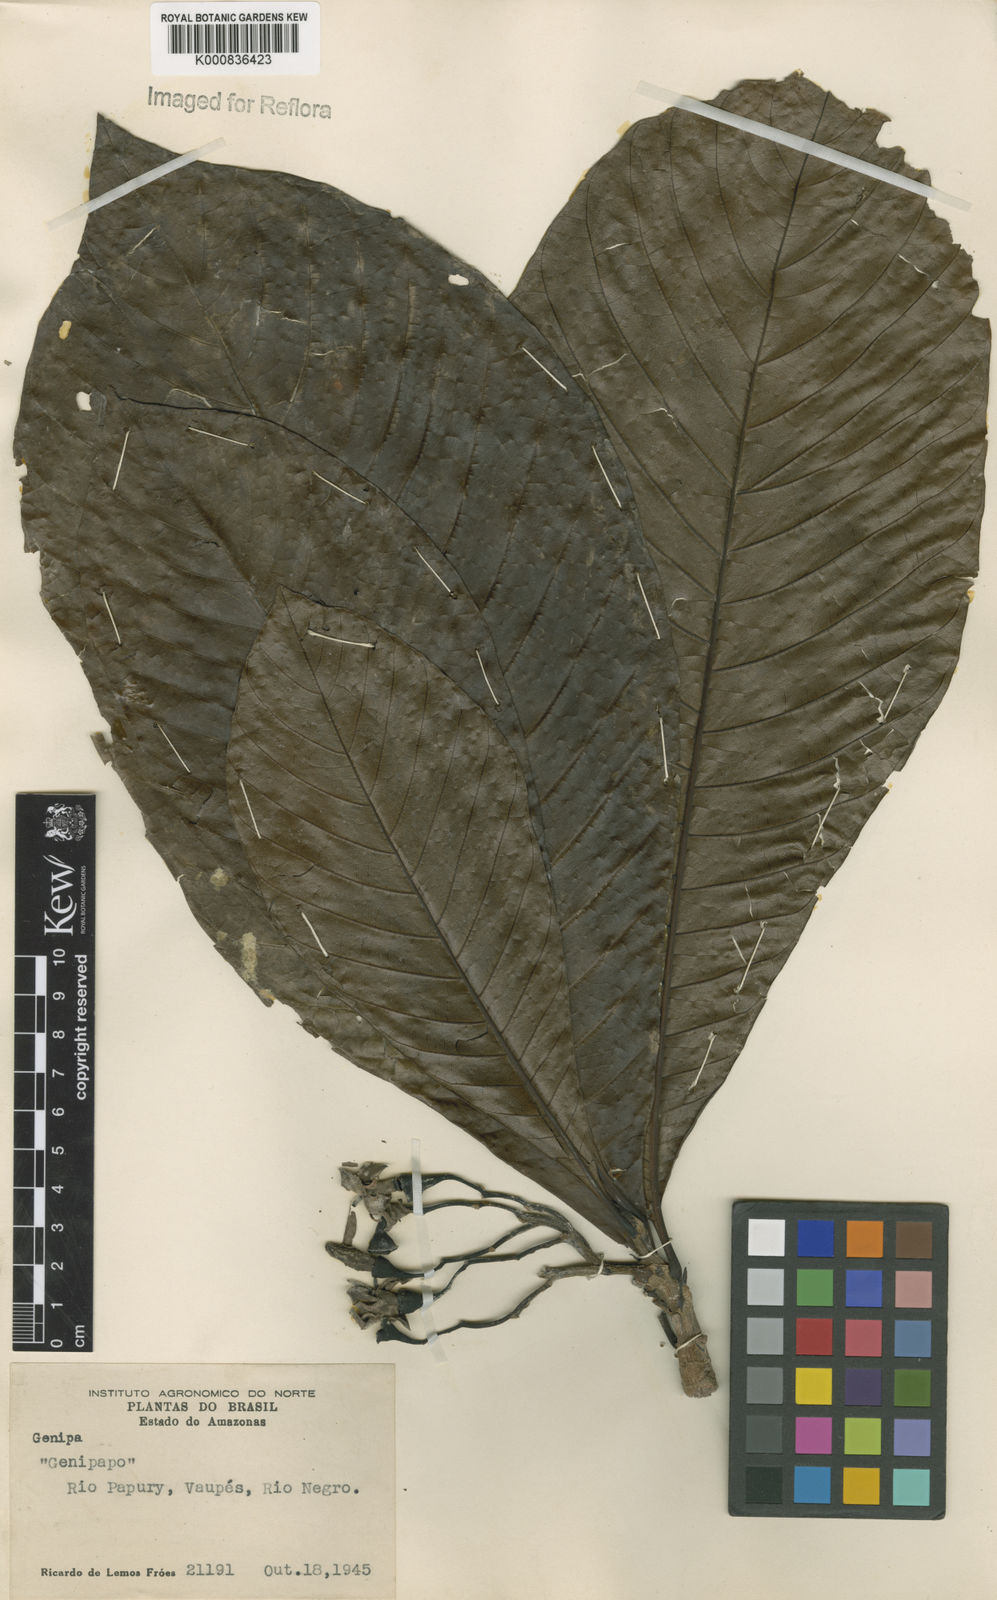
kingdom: Plantae
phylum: Tracheophyta
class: Magnoliopsida
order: Gentianales
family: Rubiaceae
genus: Genipa
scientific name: Genipa americana
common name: Genipap
